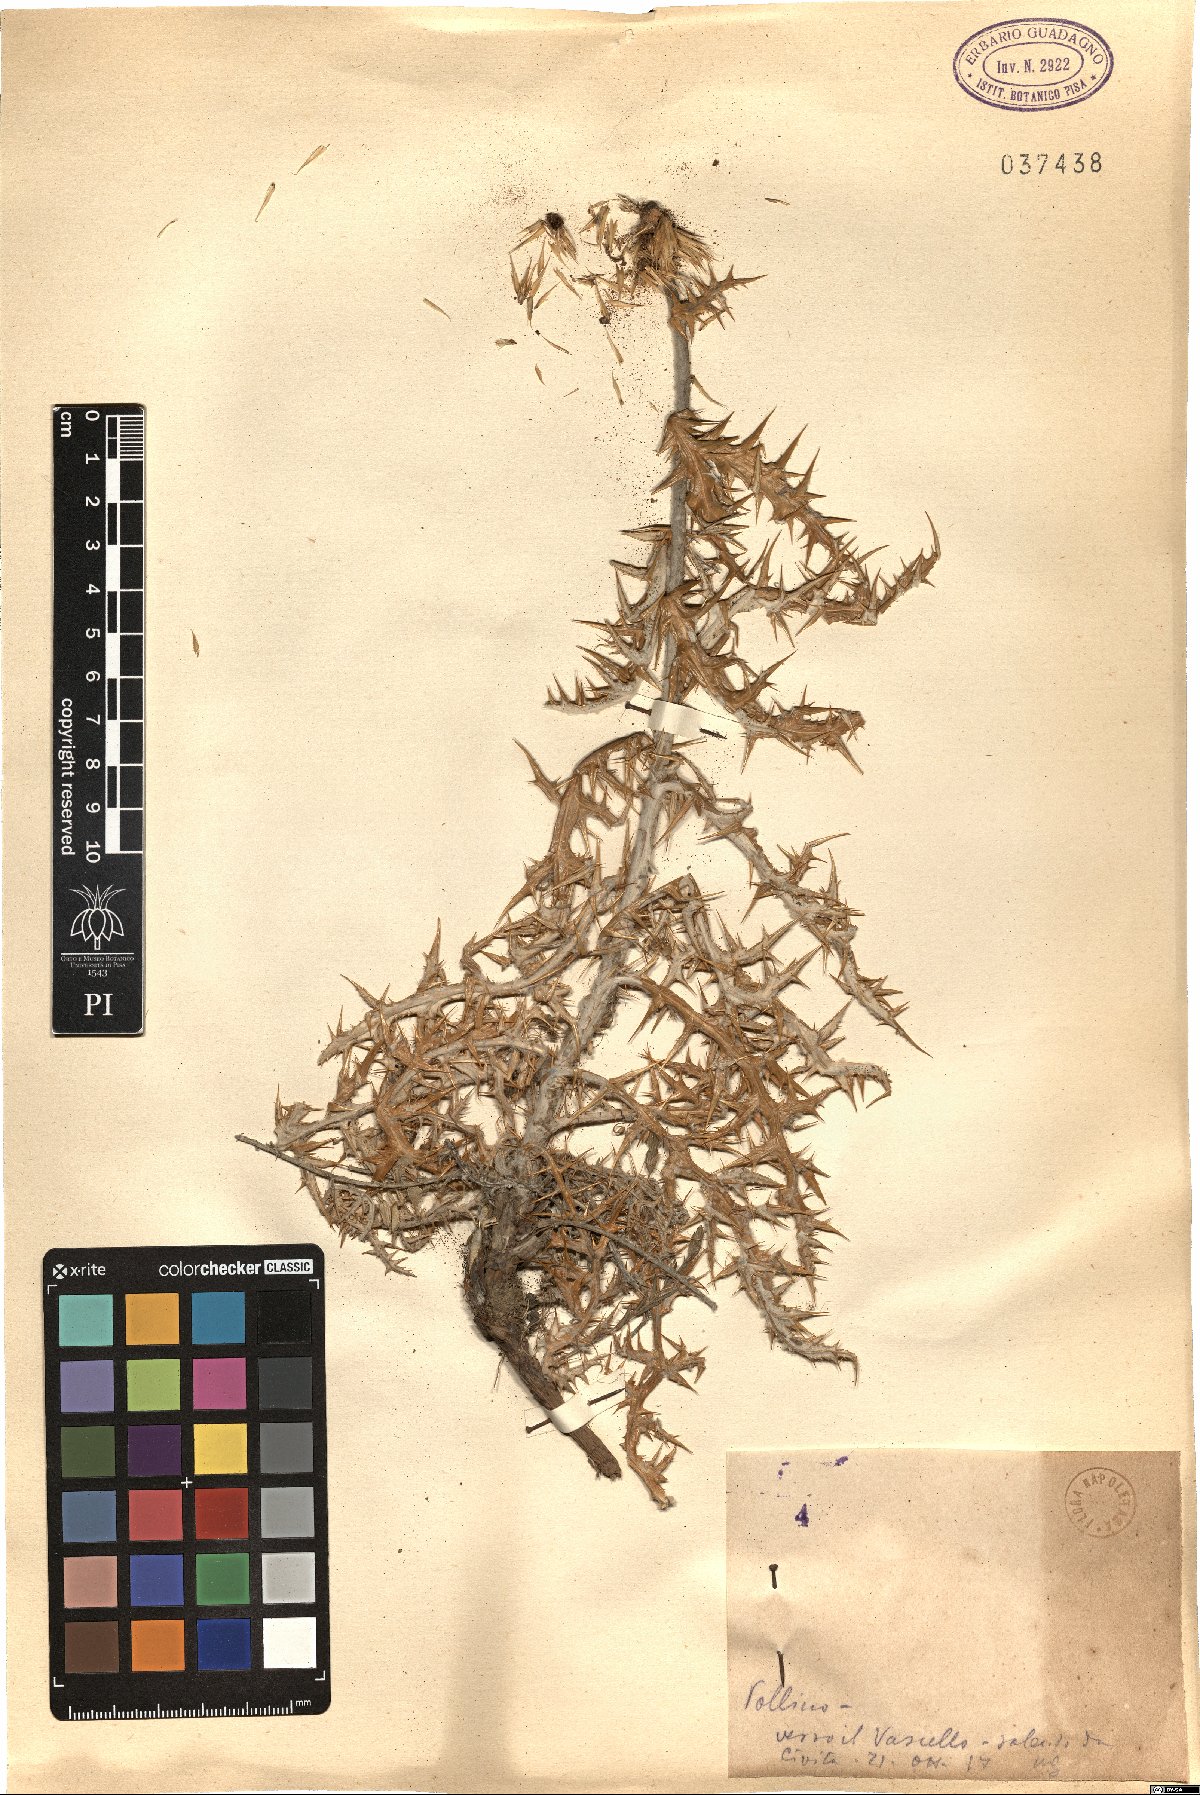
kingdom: Plantae
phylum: Tracheophyta
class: Magnoliopsida
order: Asterales
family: Asteraceae
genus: Echinops
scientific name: Echinops
